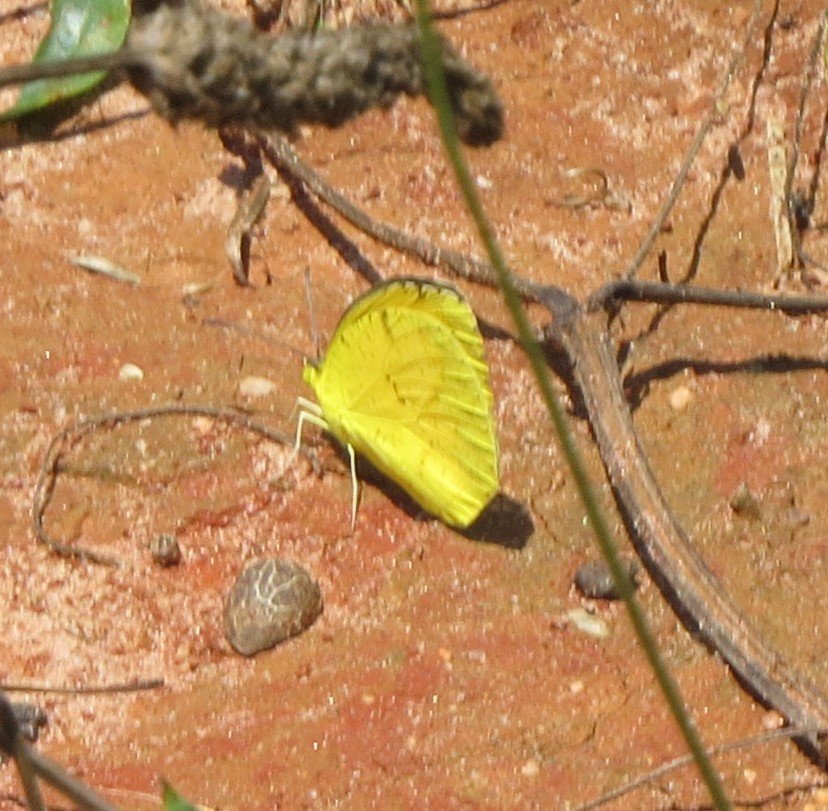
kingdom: Animalia
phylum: Arthropoda
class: Insecta
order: Lepidoptera
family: Pieridae
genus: Abaeis
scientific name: Abaeis nicippe
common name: Sleepy Orange
